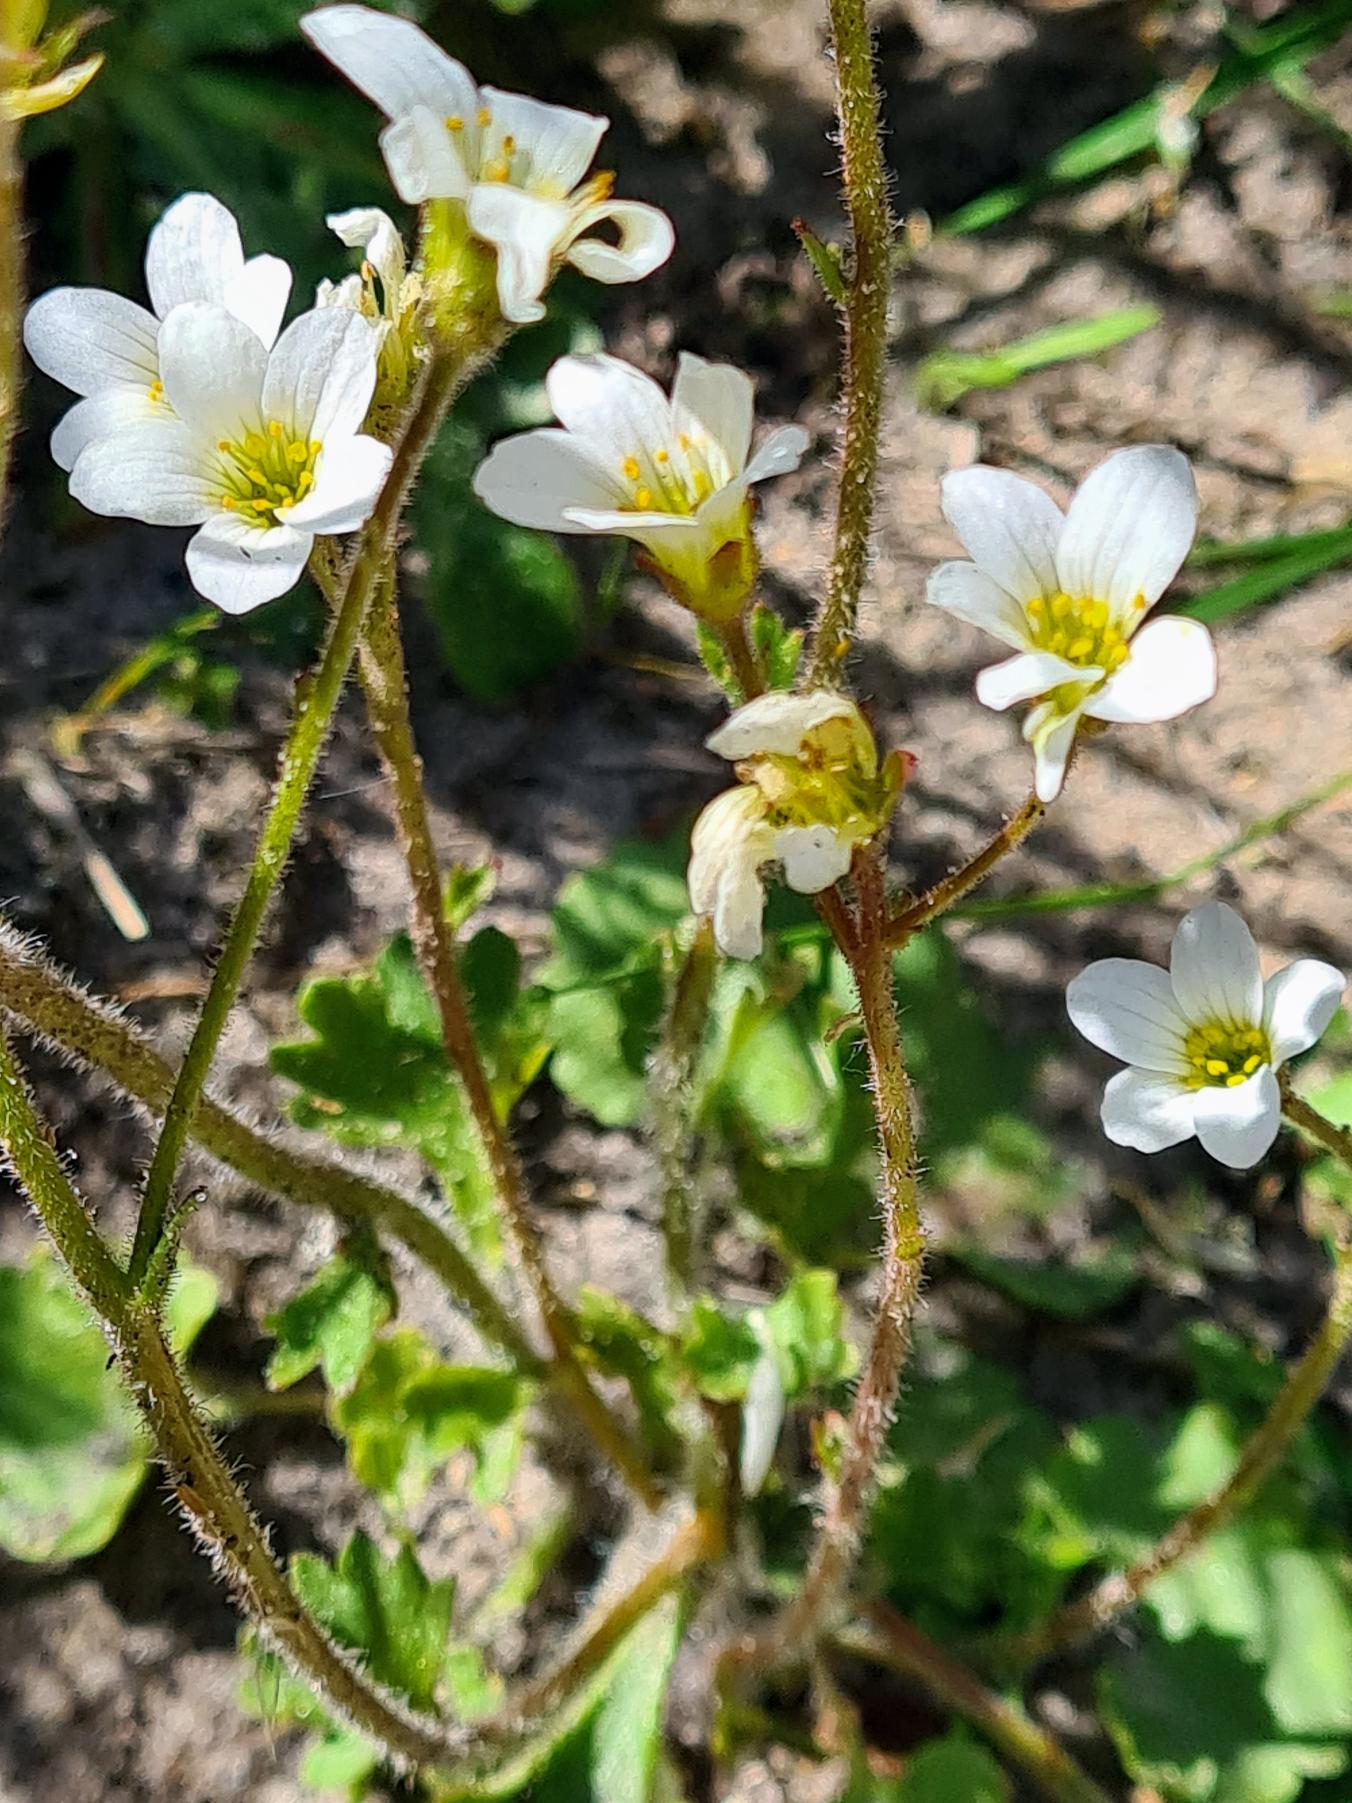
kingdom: Plantae
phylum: Tracheophyta
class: Magnoliopsida
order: Saxifragales
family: Saxifragaceae
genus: Saxifraga
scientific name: Saxifraga granulata
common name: Kornet stenbræk
